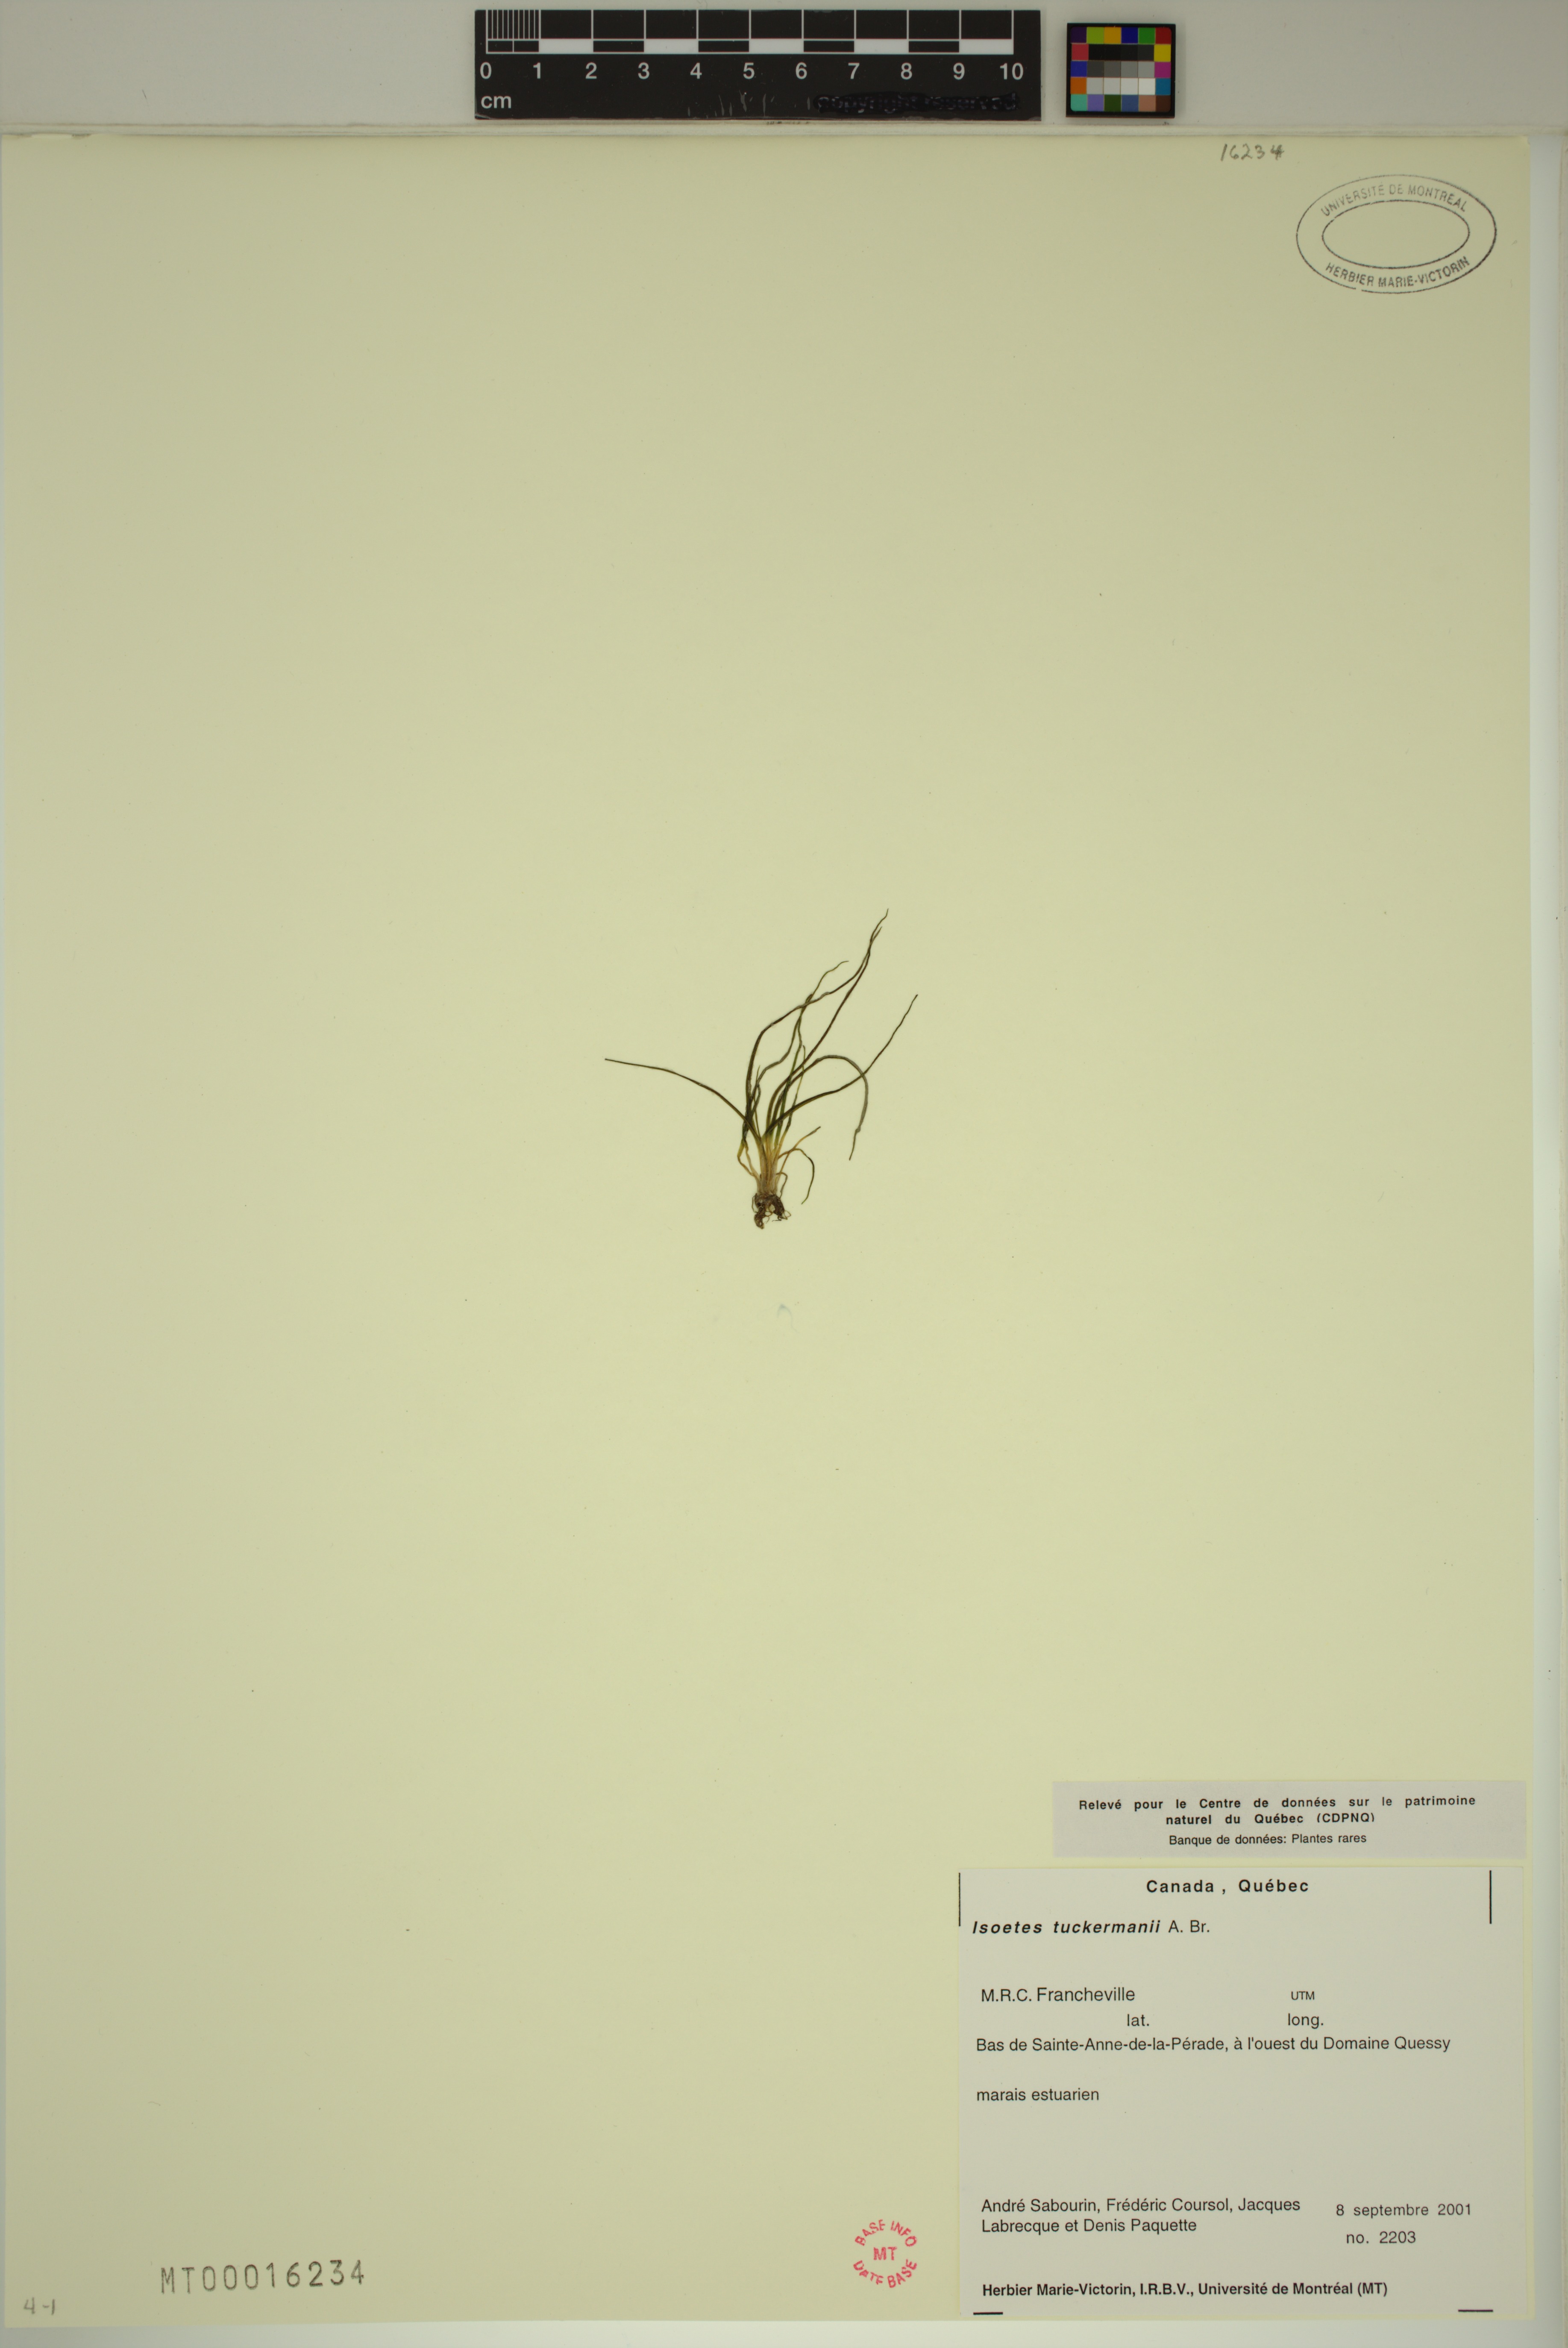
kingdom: Plantae
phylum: Tracheophyta
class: Lycopodiopsida
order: Isoetales
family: Isoetaceae
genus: Isoetes
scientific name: Isoetes laurentiana
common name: St. lawrence quillwort
